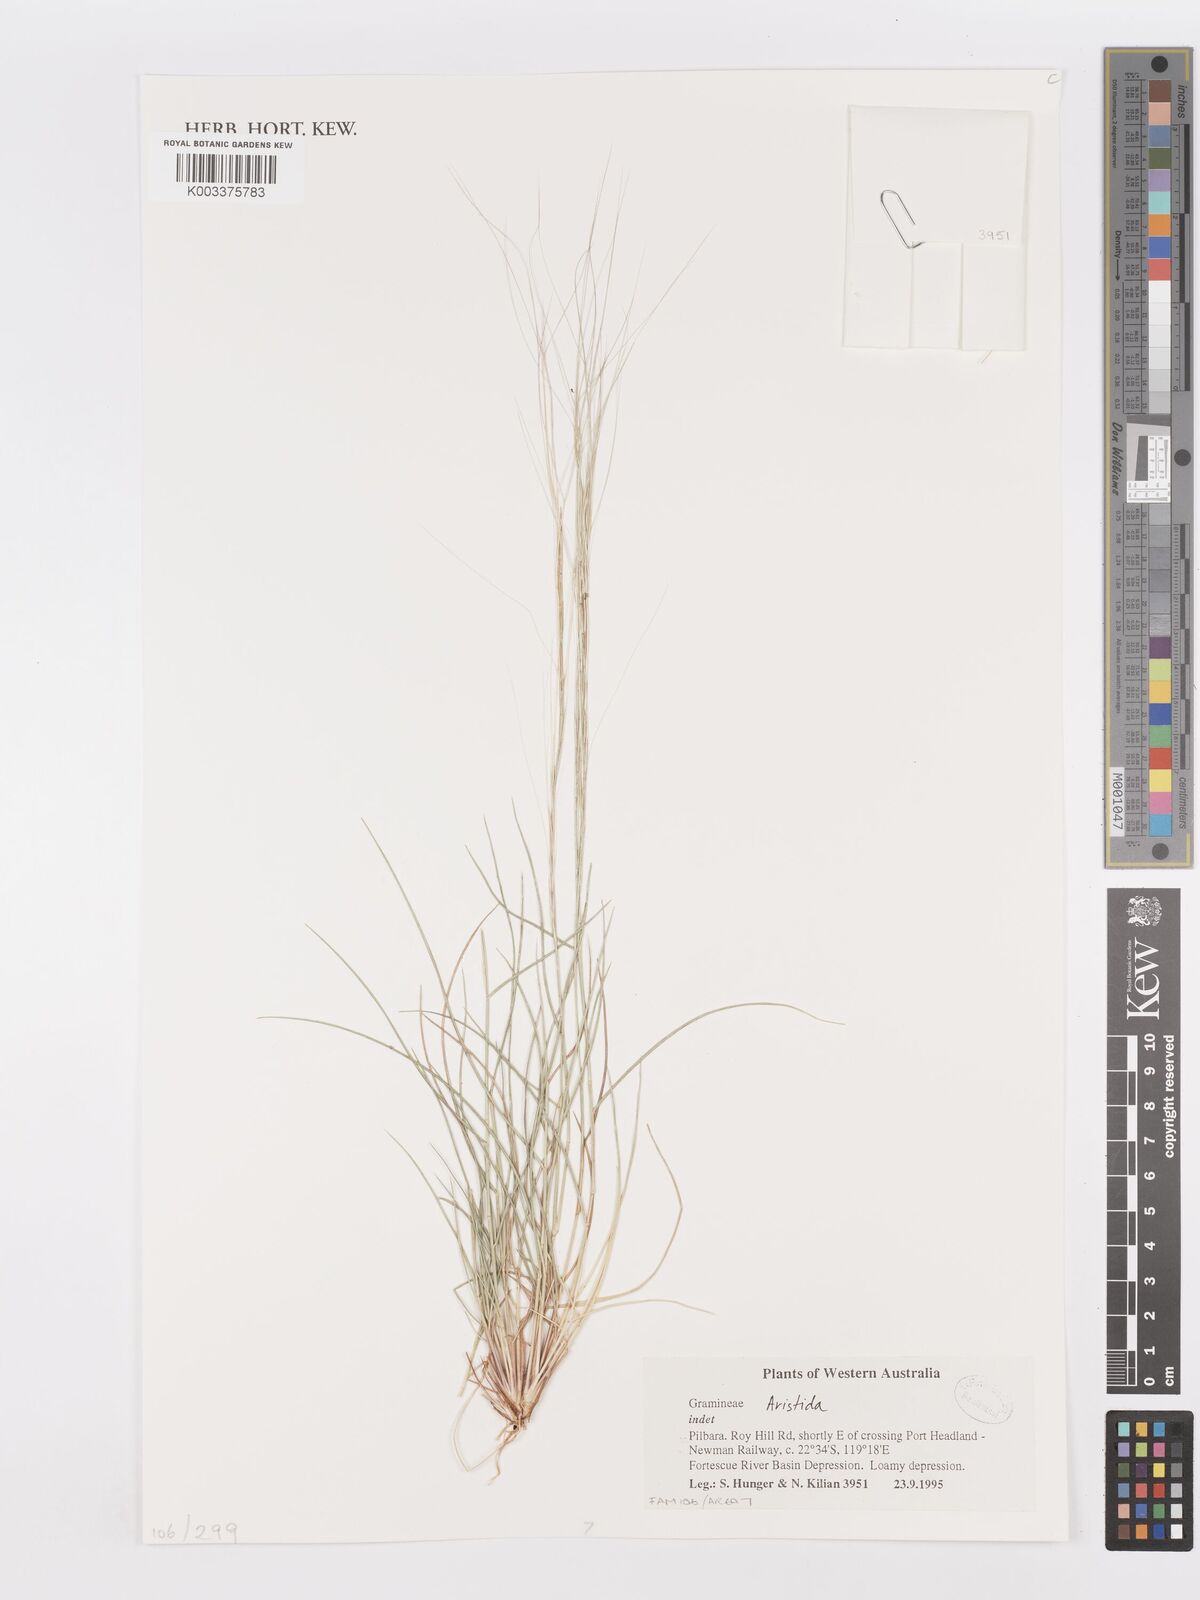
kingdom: Plantae
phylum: Tracheophyta
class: Liliopsida
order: Poales
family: Poaceae
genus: Aristida
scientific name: Aristida
